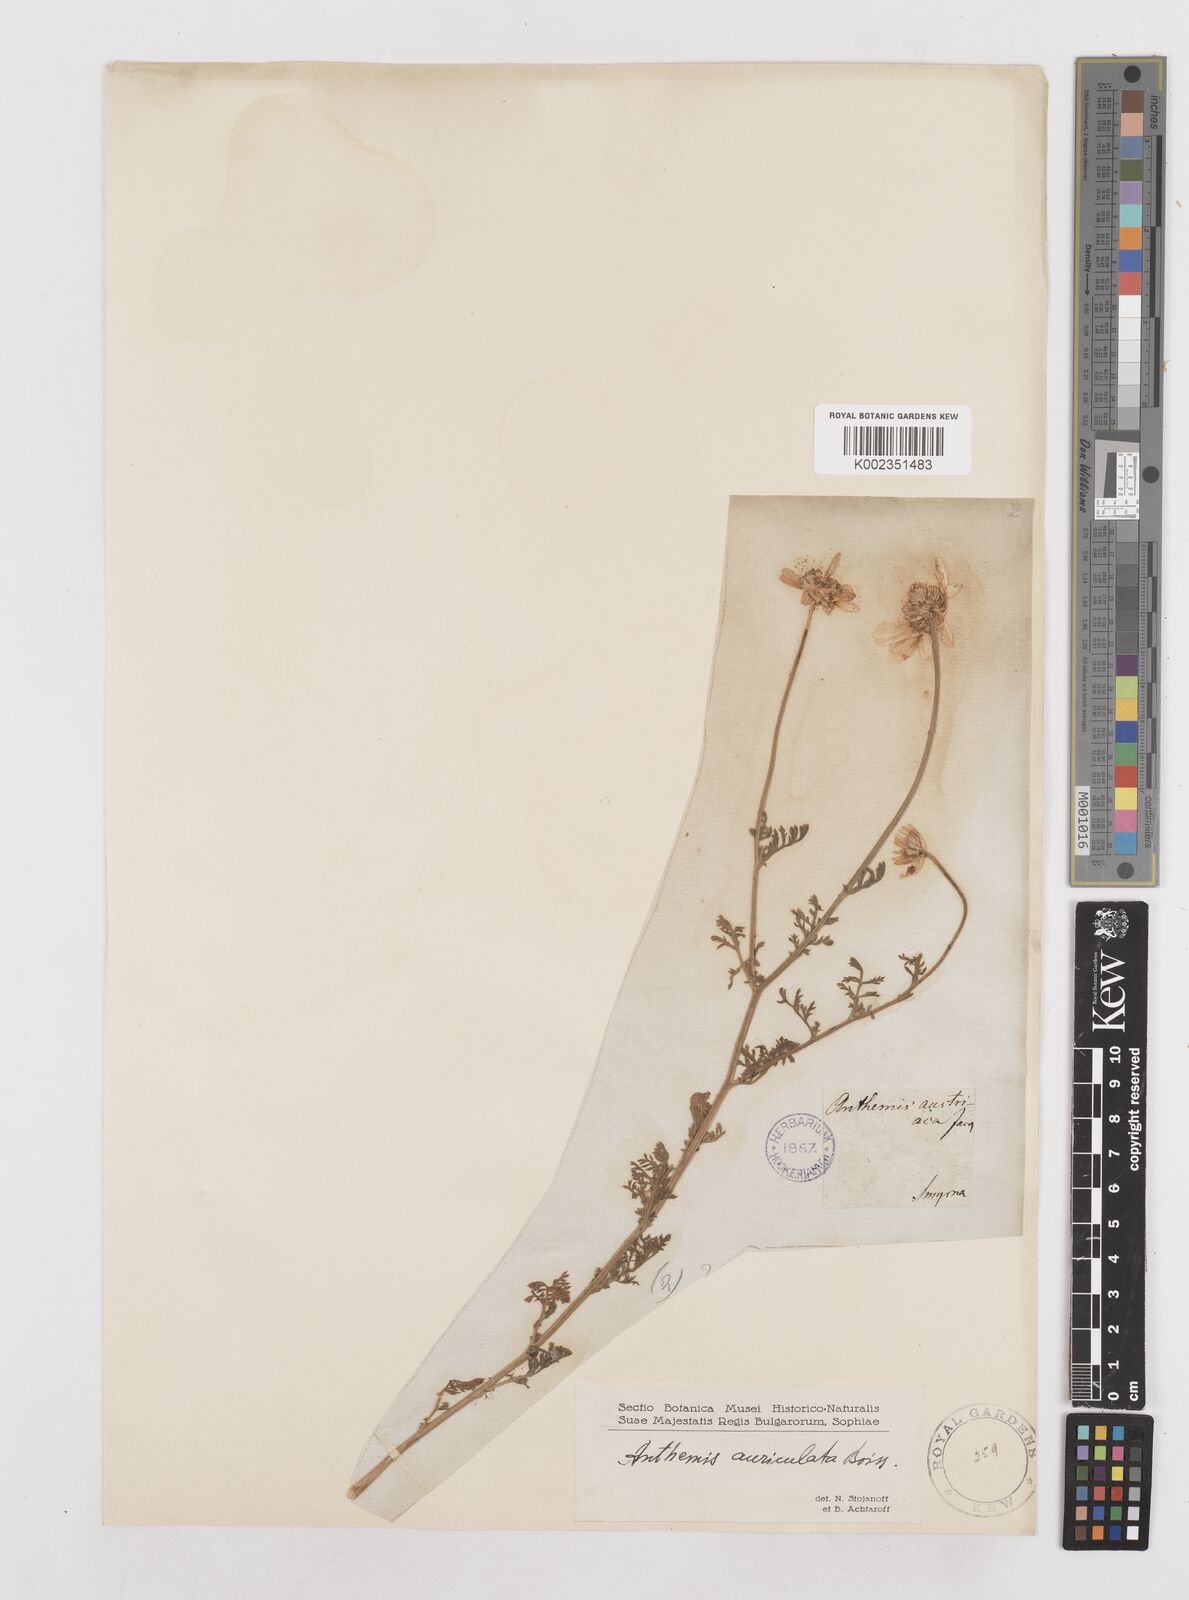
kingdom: Plantae
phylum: Tracheophyta
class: Magnoliopsida
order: Asterales
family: Asteraceae
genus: Anthemis
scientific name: Anthemis auriculata
